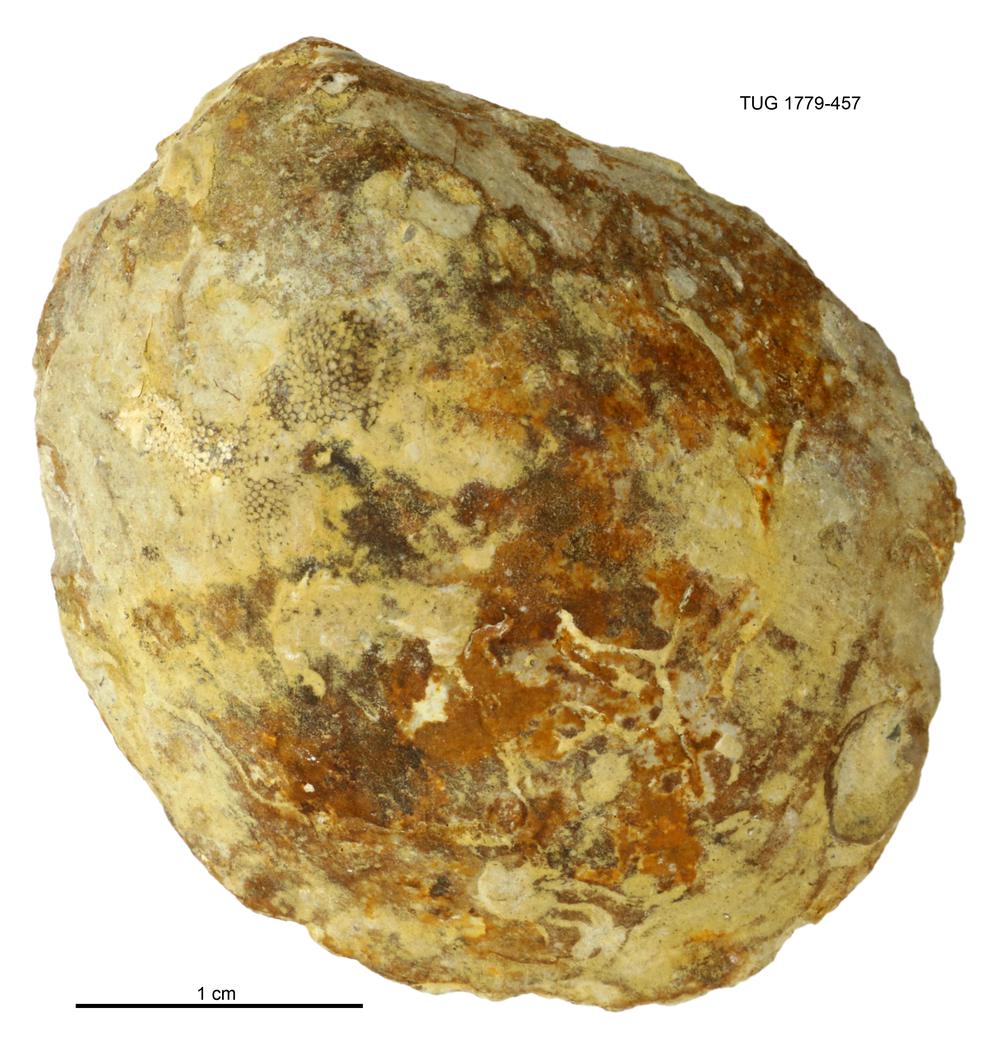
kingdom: Animalia
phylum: Mollusca
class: Bivalvia
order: Modiomorphida
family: Modiomorphidae
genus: Modiolopsis
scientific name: Modiolopsis
